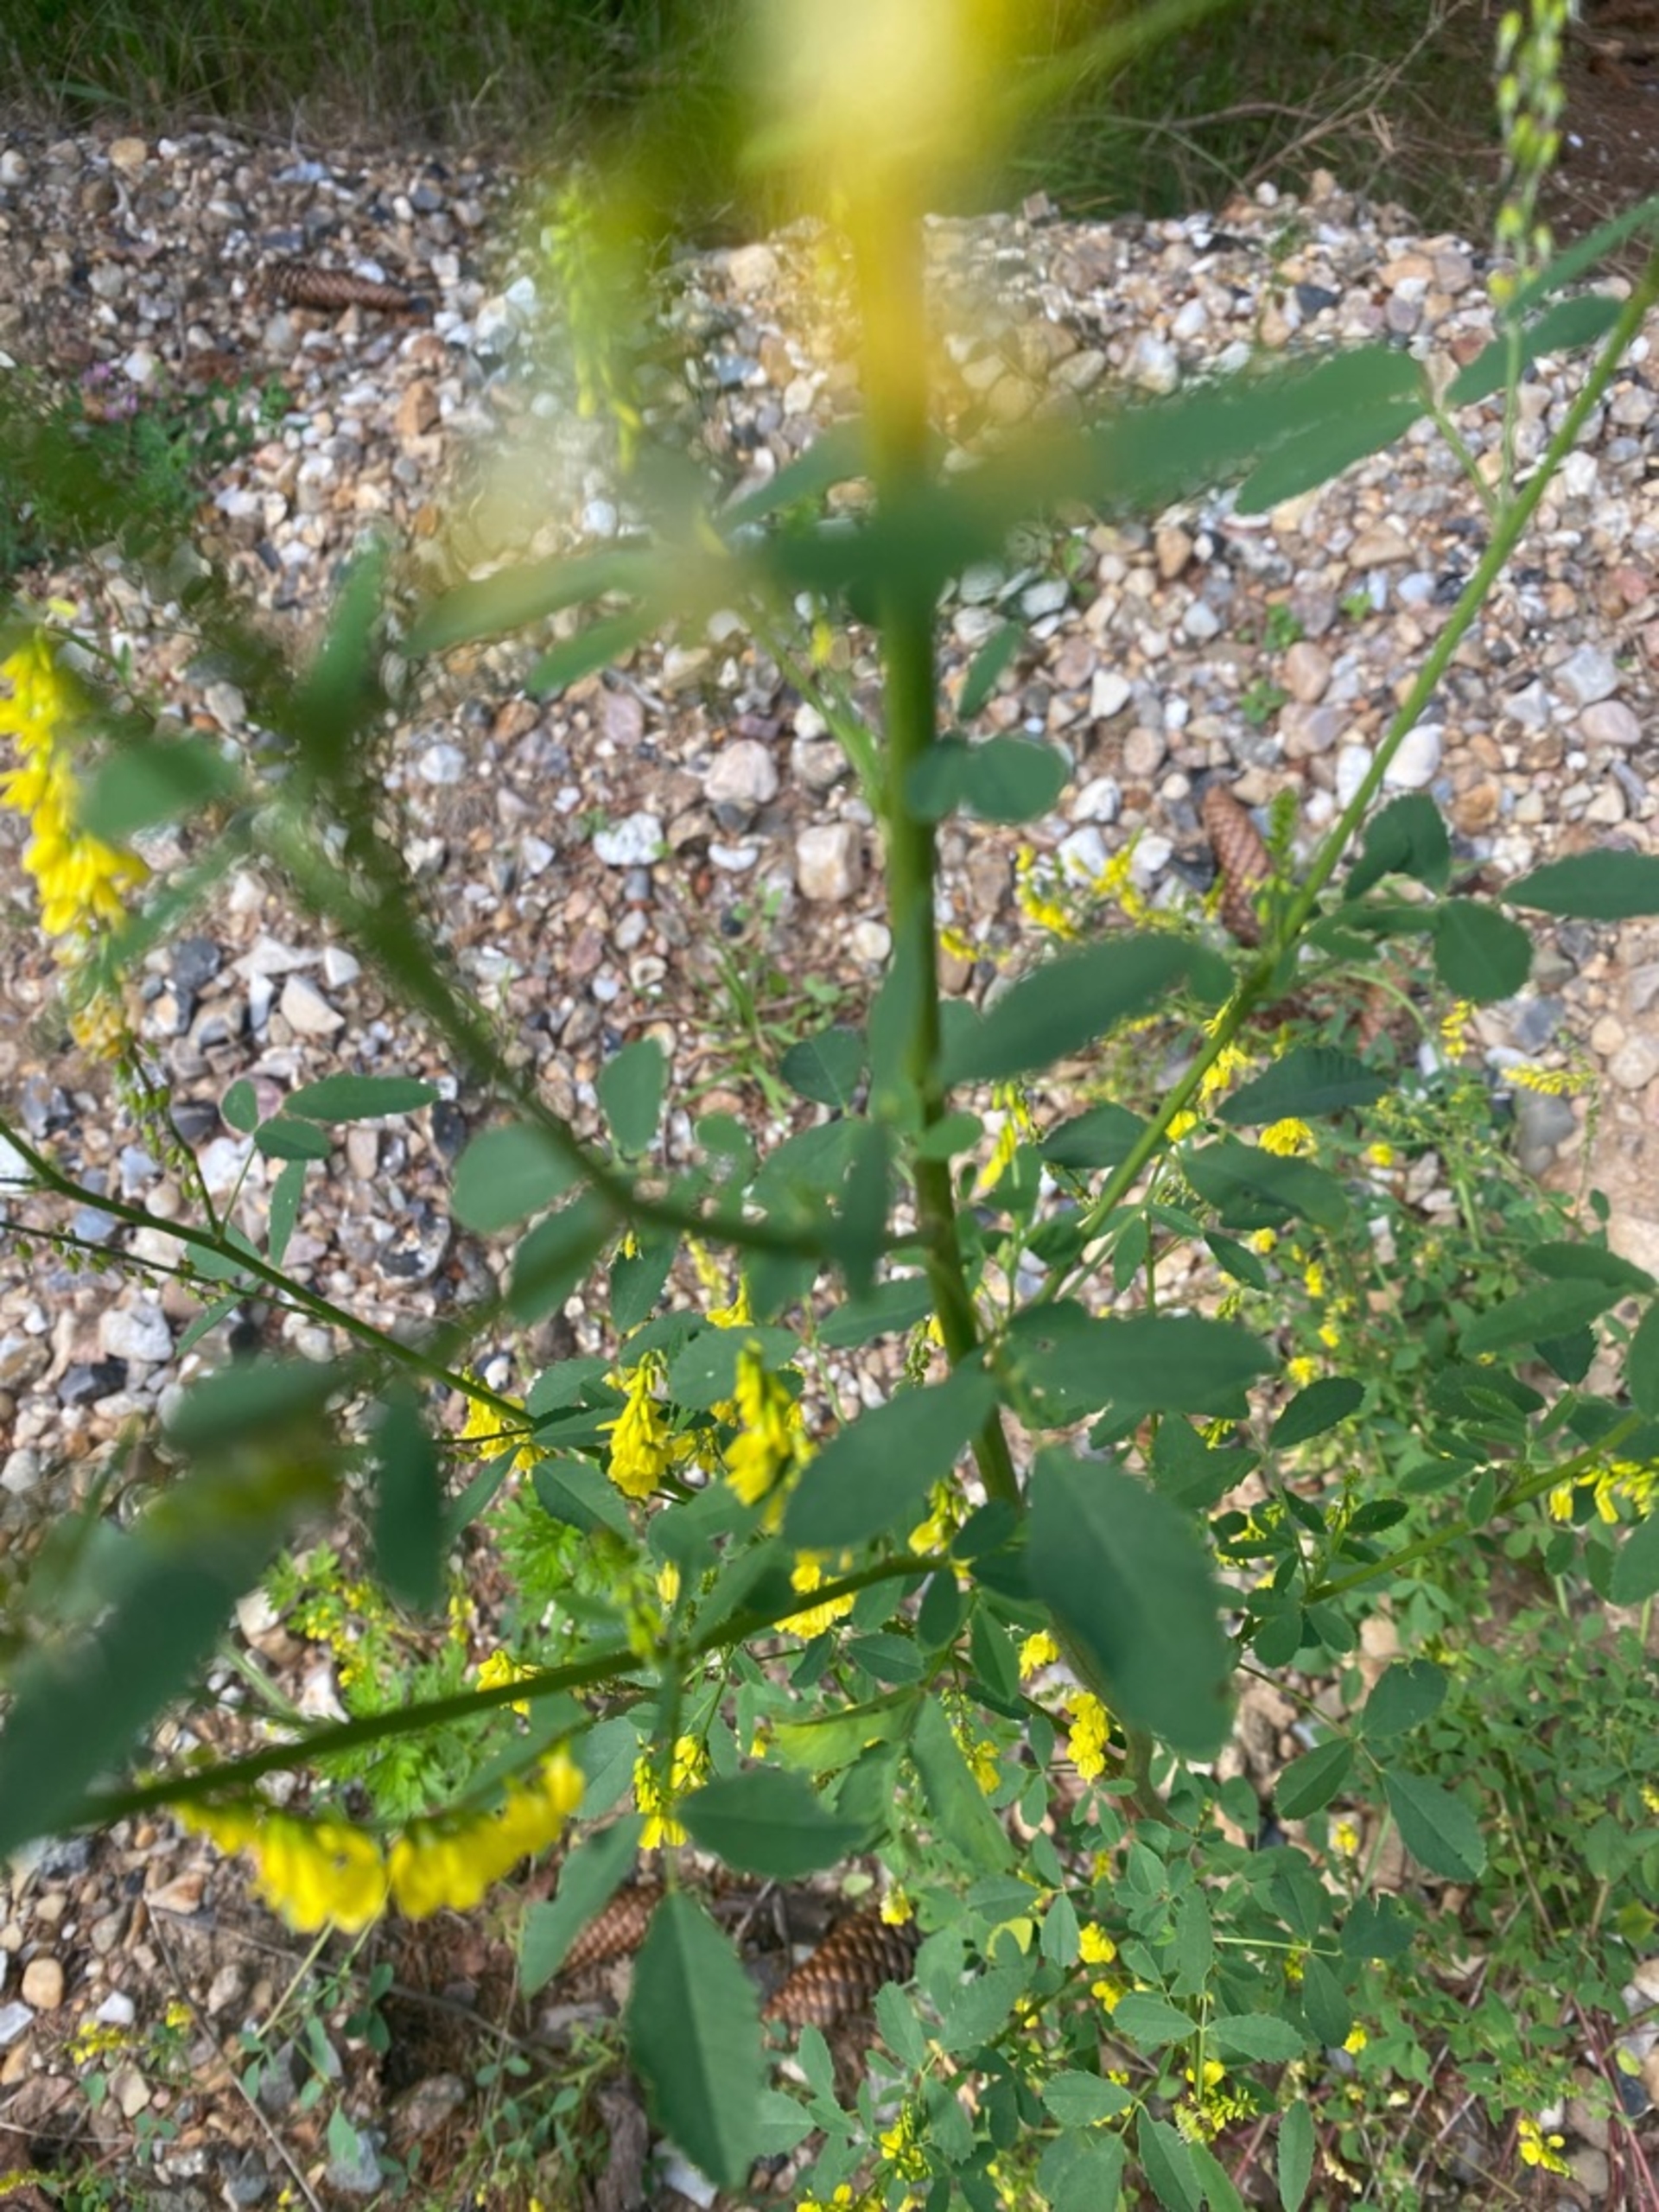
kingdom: Plantae
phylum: Tracheophyta
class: Magnoliopsida
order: Fabales
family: Fabaceae
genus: Melilotus
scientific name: Melilotus officinalis
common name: Mark-stenkløver
